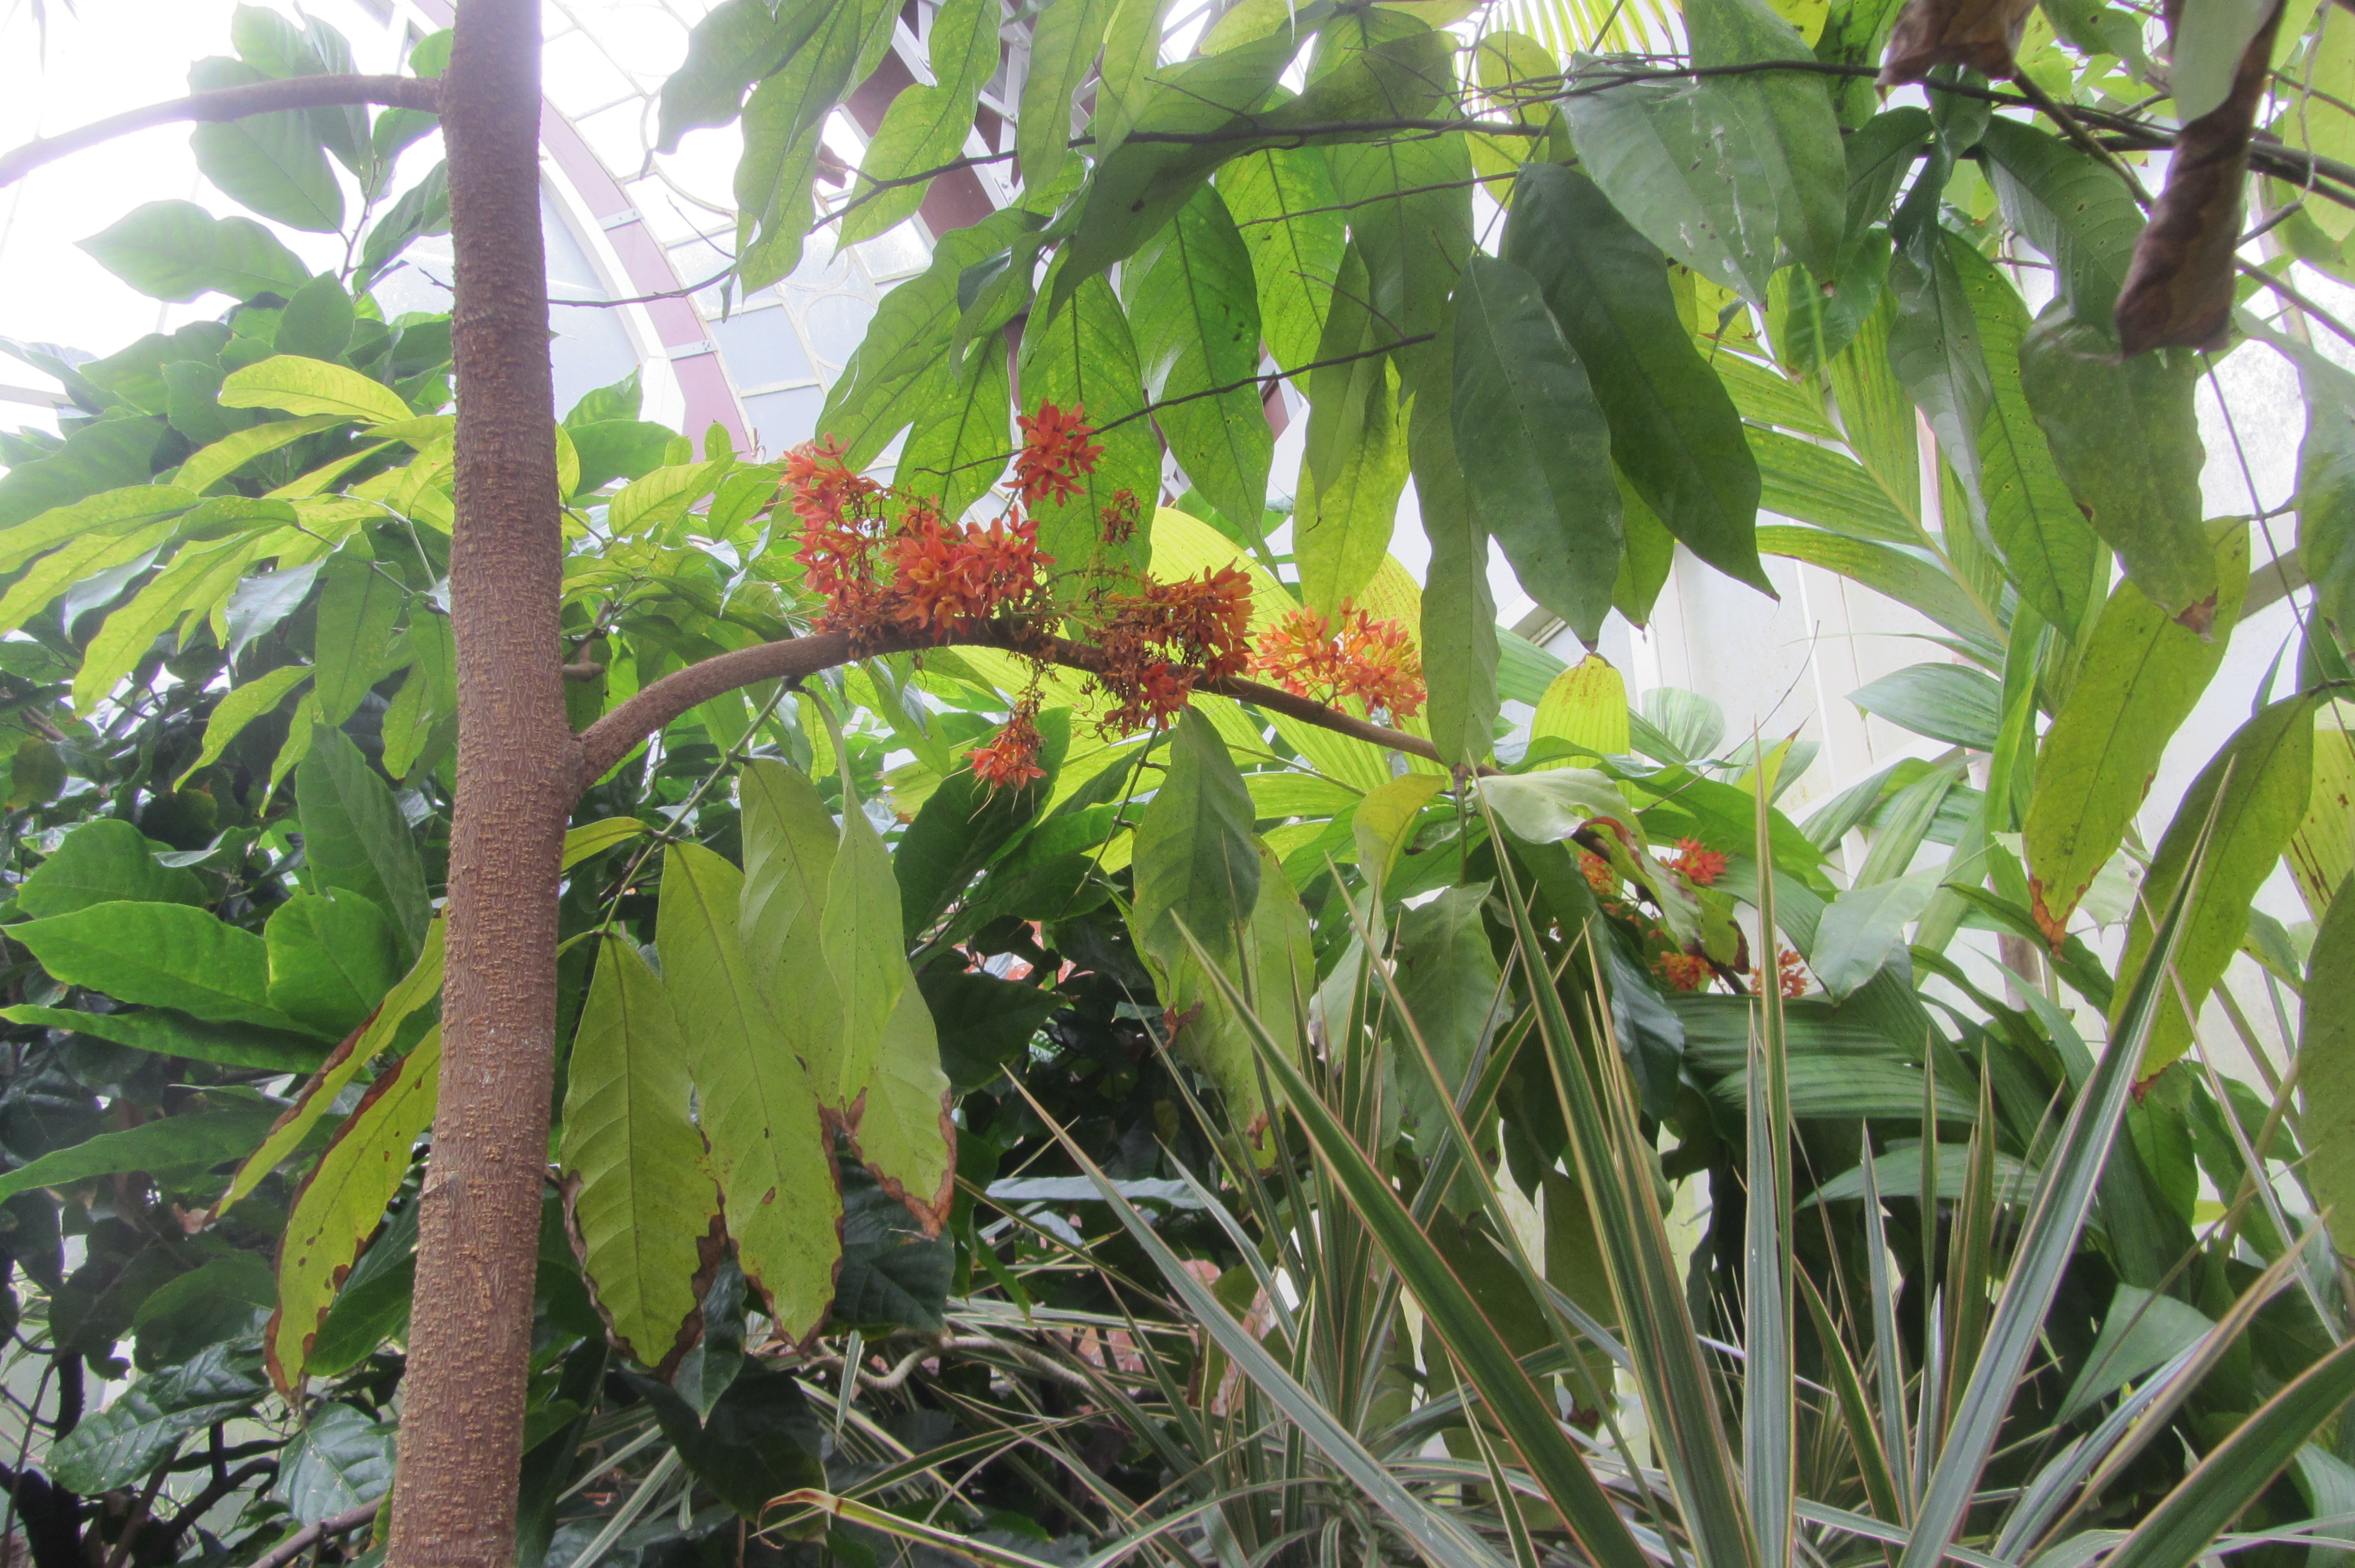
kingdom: Plantae
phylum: Tracheophyta
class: Magnoliopsida
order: Fabales
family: Fabaceae
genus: Saraca
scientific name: Saraca indica
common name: Asoka-tree
